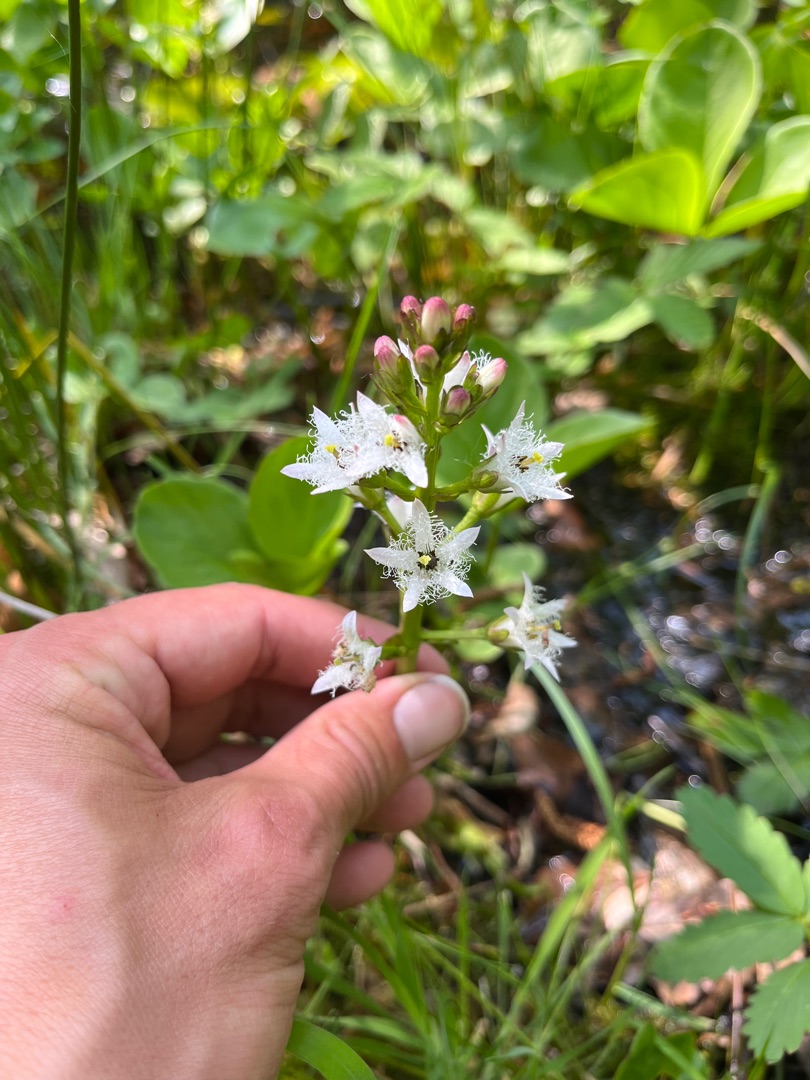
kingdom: Plantae
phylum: Tracheophyta
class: Magnoliopsida
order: Asterales
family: Menyanthaceae
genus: Menyanthes
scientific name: Menyanthes trifoliata
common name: Bukkeblad
